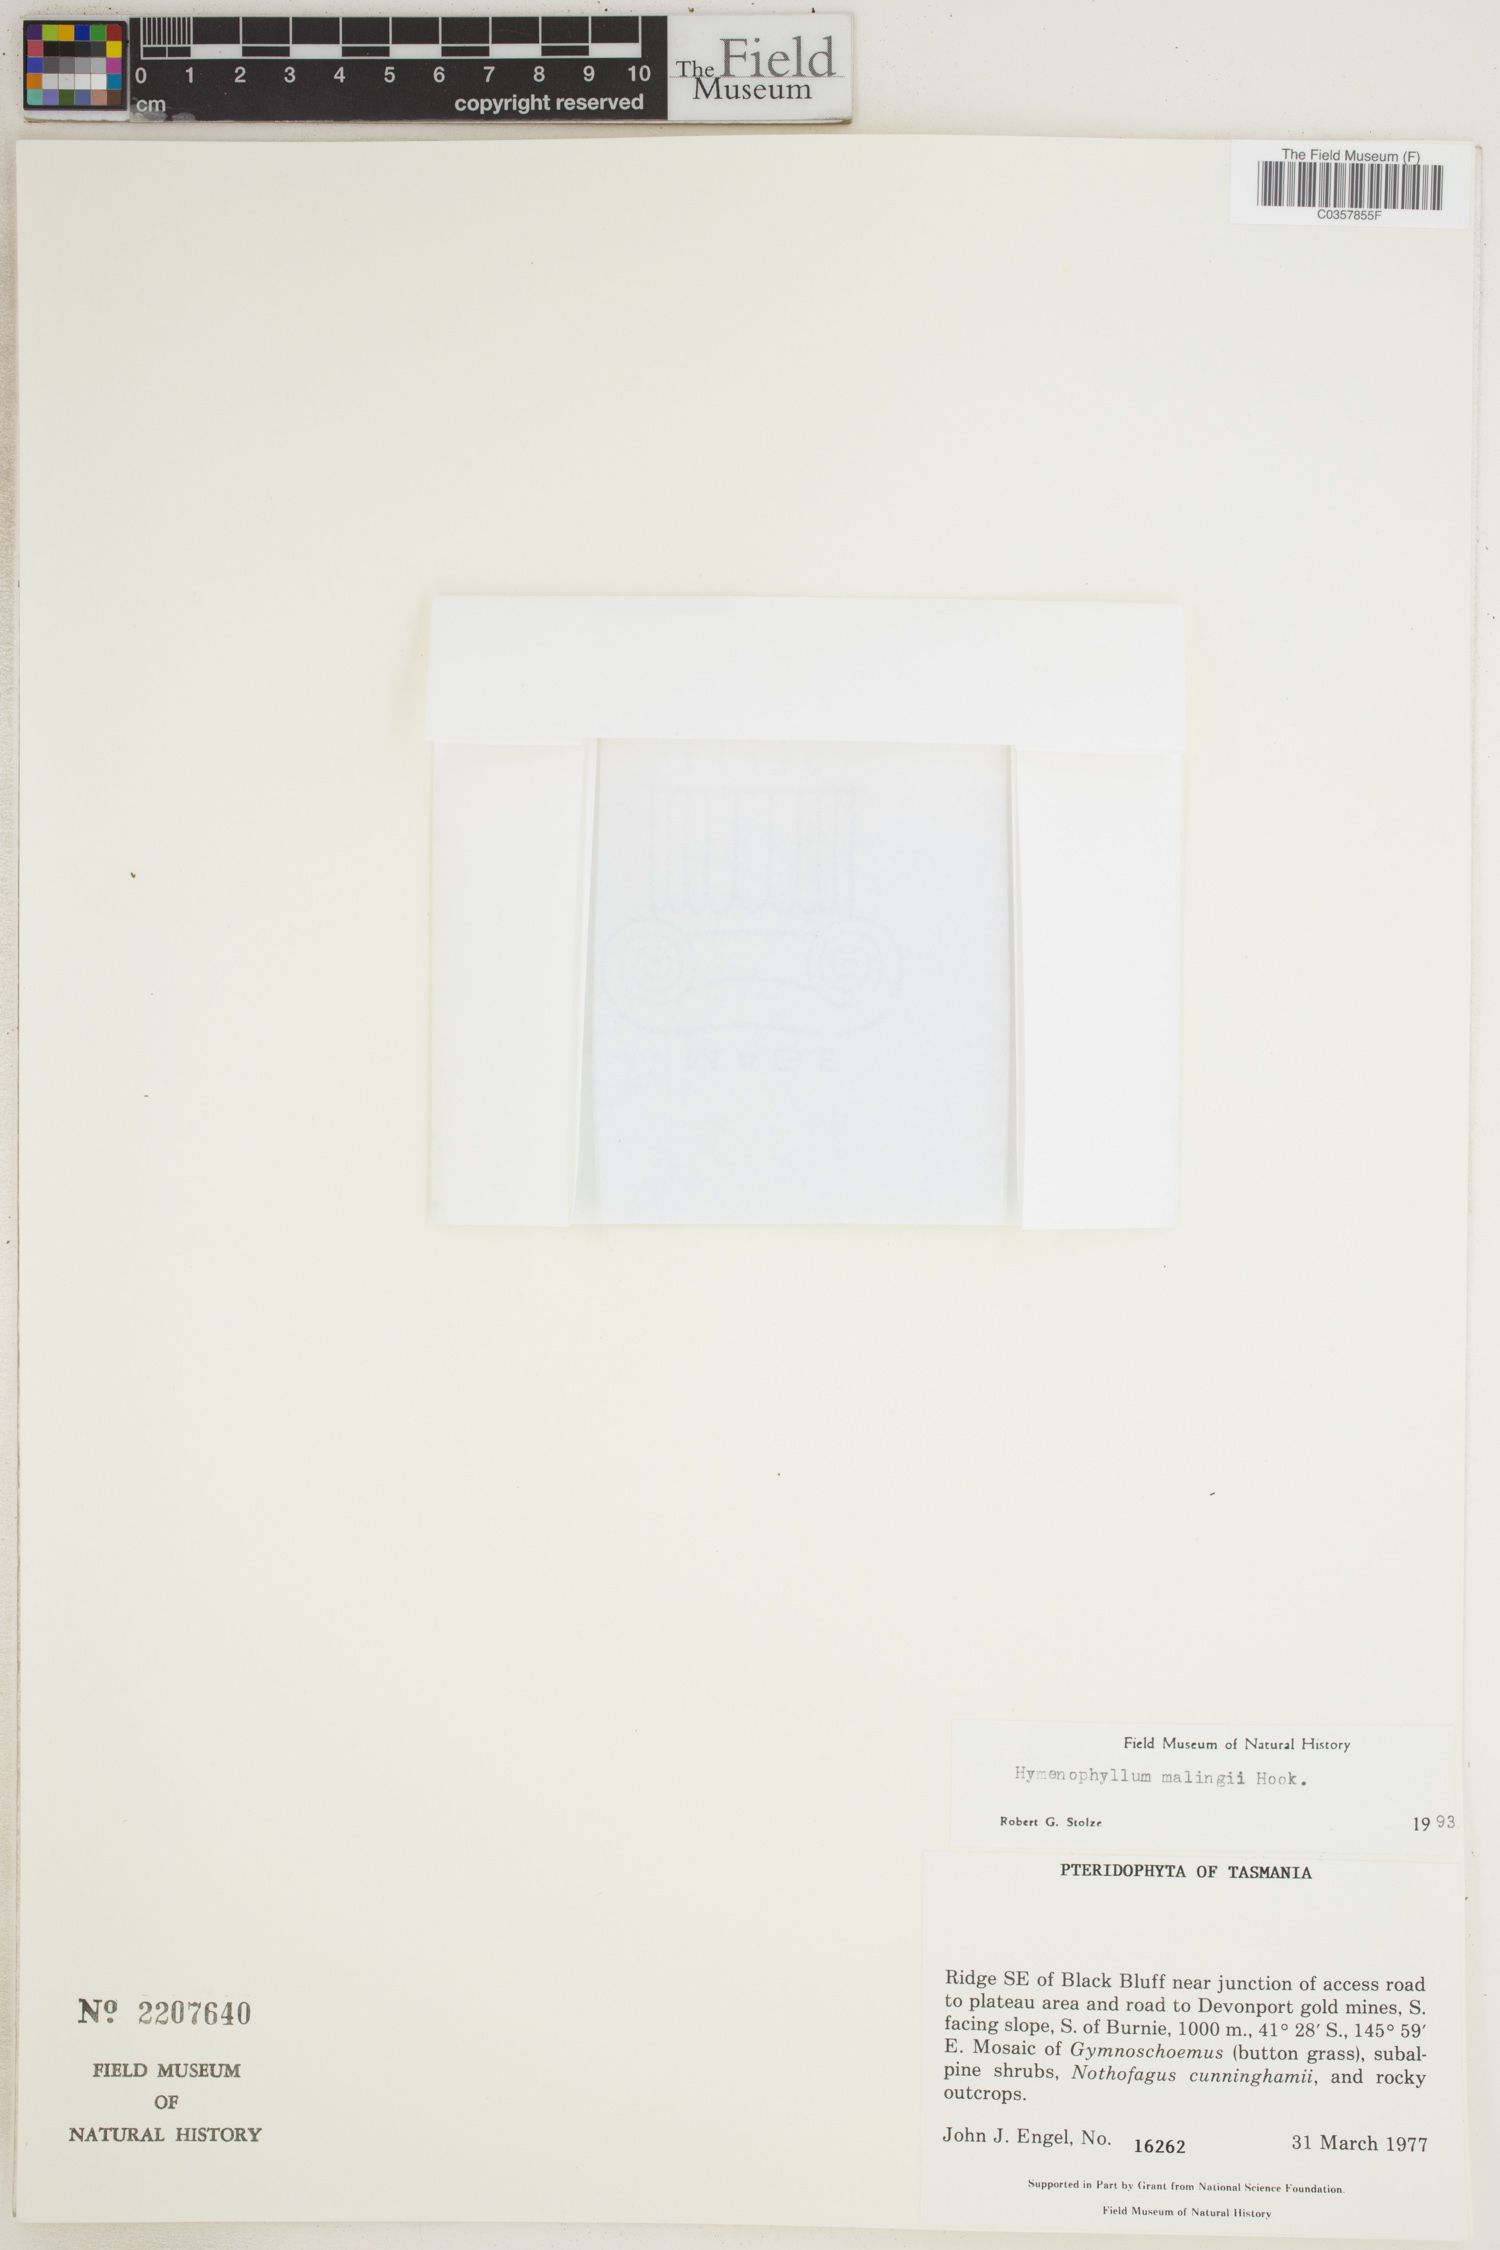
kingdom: Plantae
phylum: Tracheophyta
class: Polypodiopsida
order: Hymenophyllales
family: Hymenophyllaceae
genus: Hymenophyllum
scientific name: Hymenophyllum malingii
